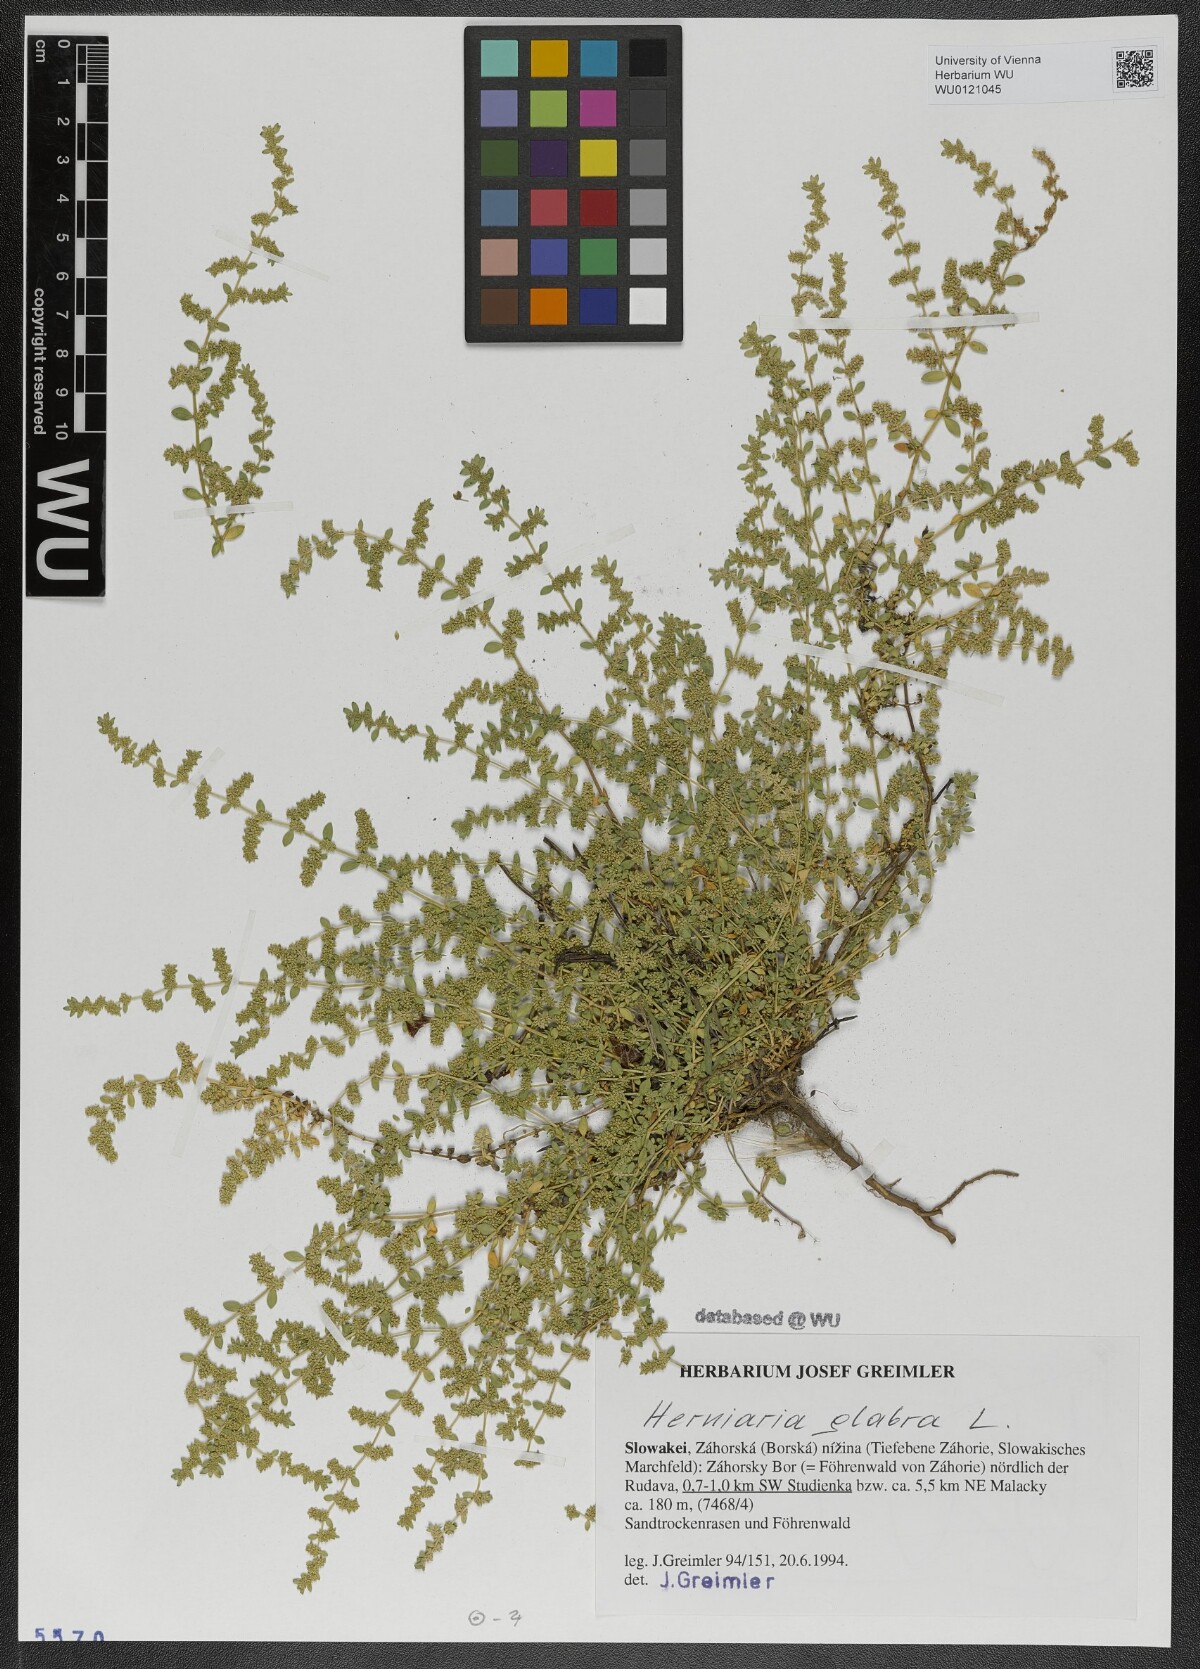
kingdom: Plantae
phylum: Tracheophyta
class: Magnoliopsida
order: Caryophyllales
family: Caryophyllaceae
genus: Herniaria
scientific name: Herniaria glabra
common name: Smooth rupturewort
